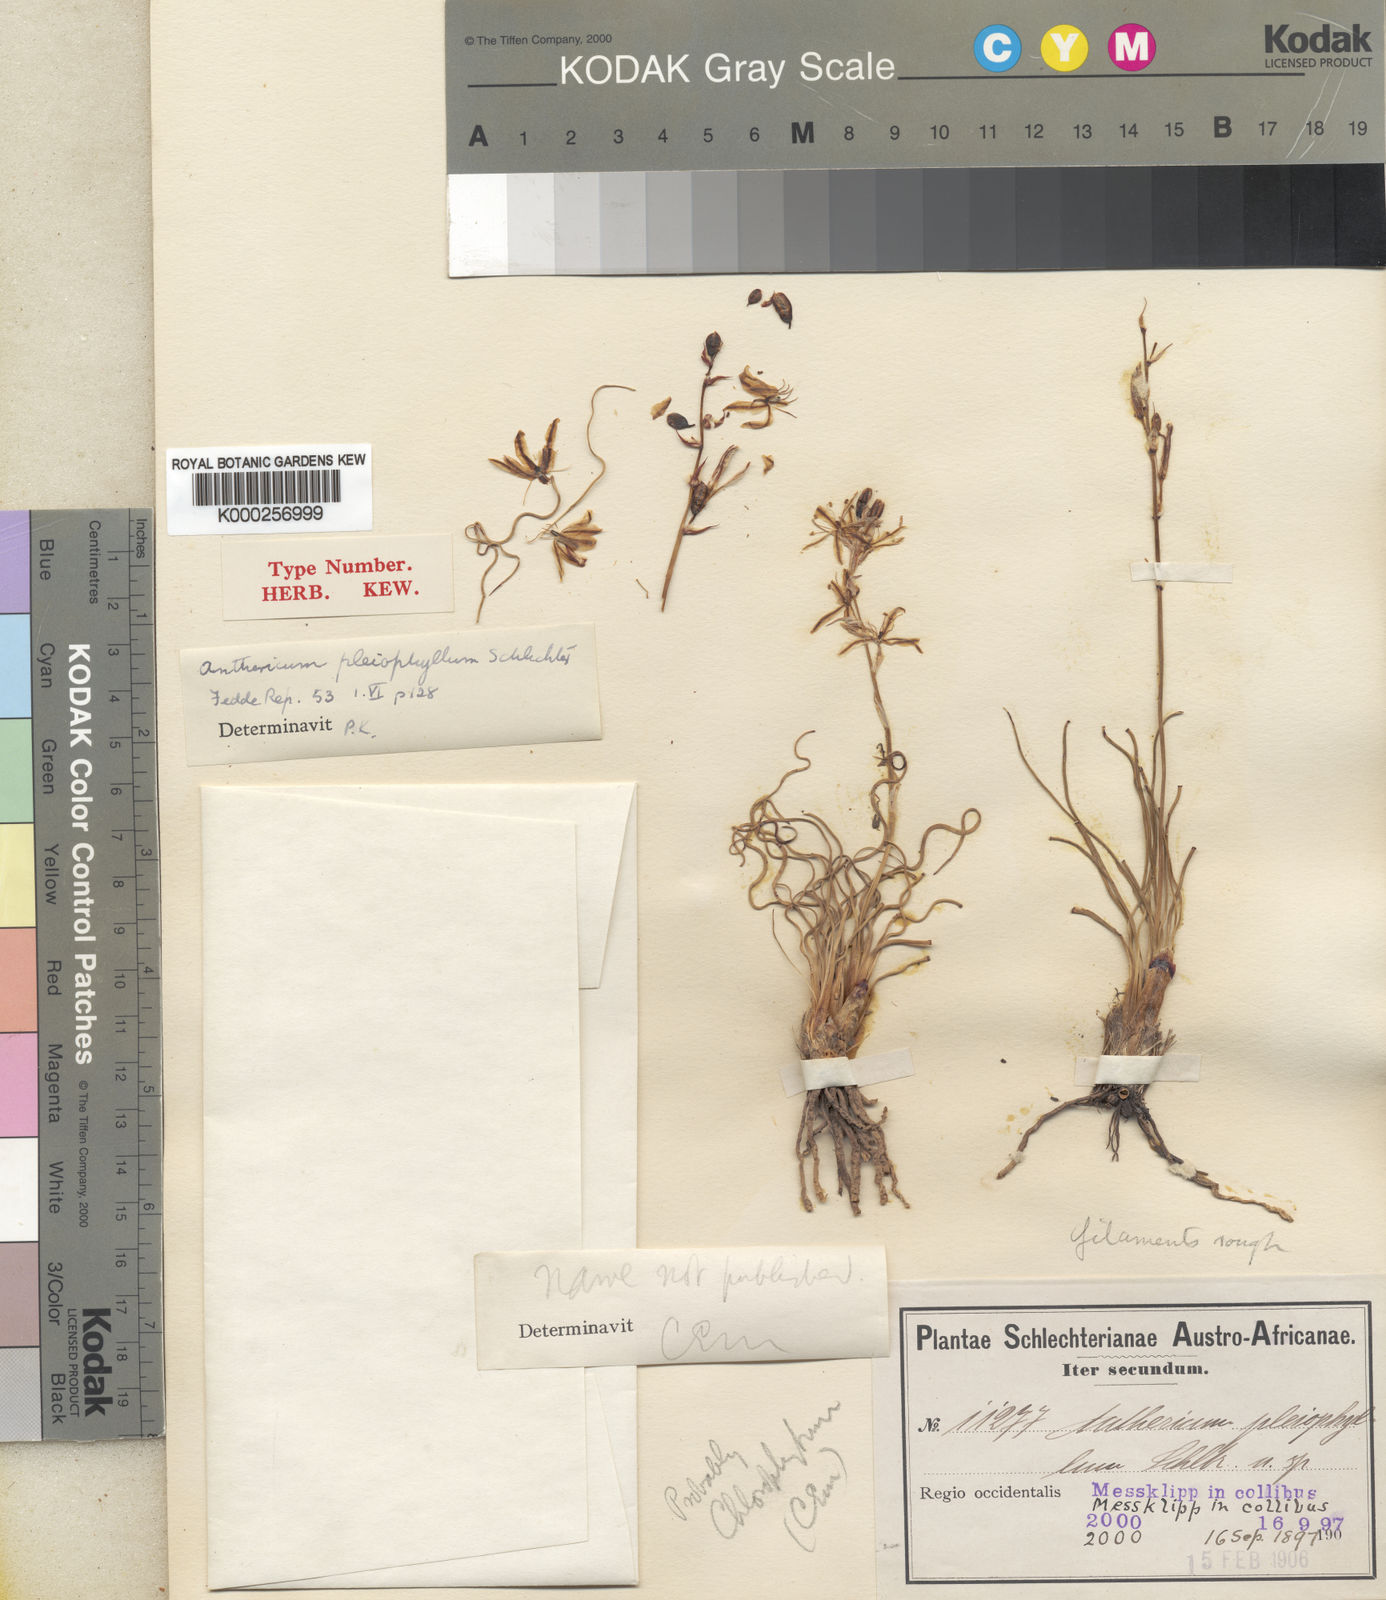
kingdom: Plantae
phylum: Tracheophyta
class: Liliopsida
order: Asparagales
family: Asparagaceae
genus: Chlorophytum
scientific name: Chlorophytum graminifolium
